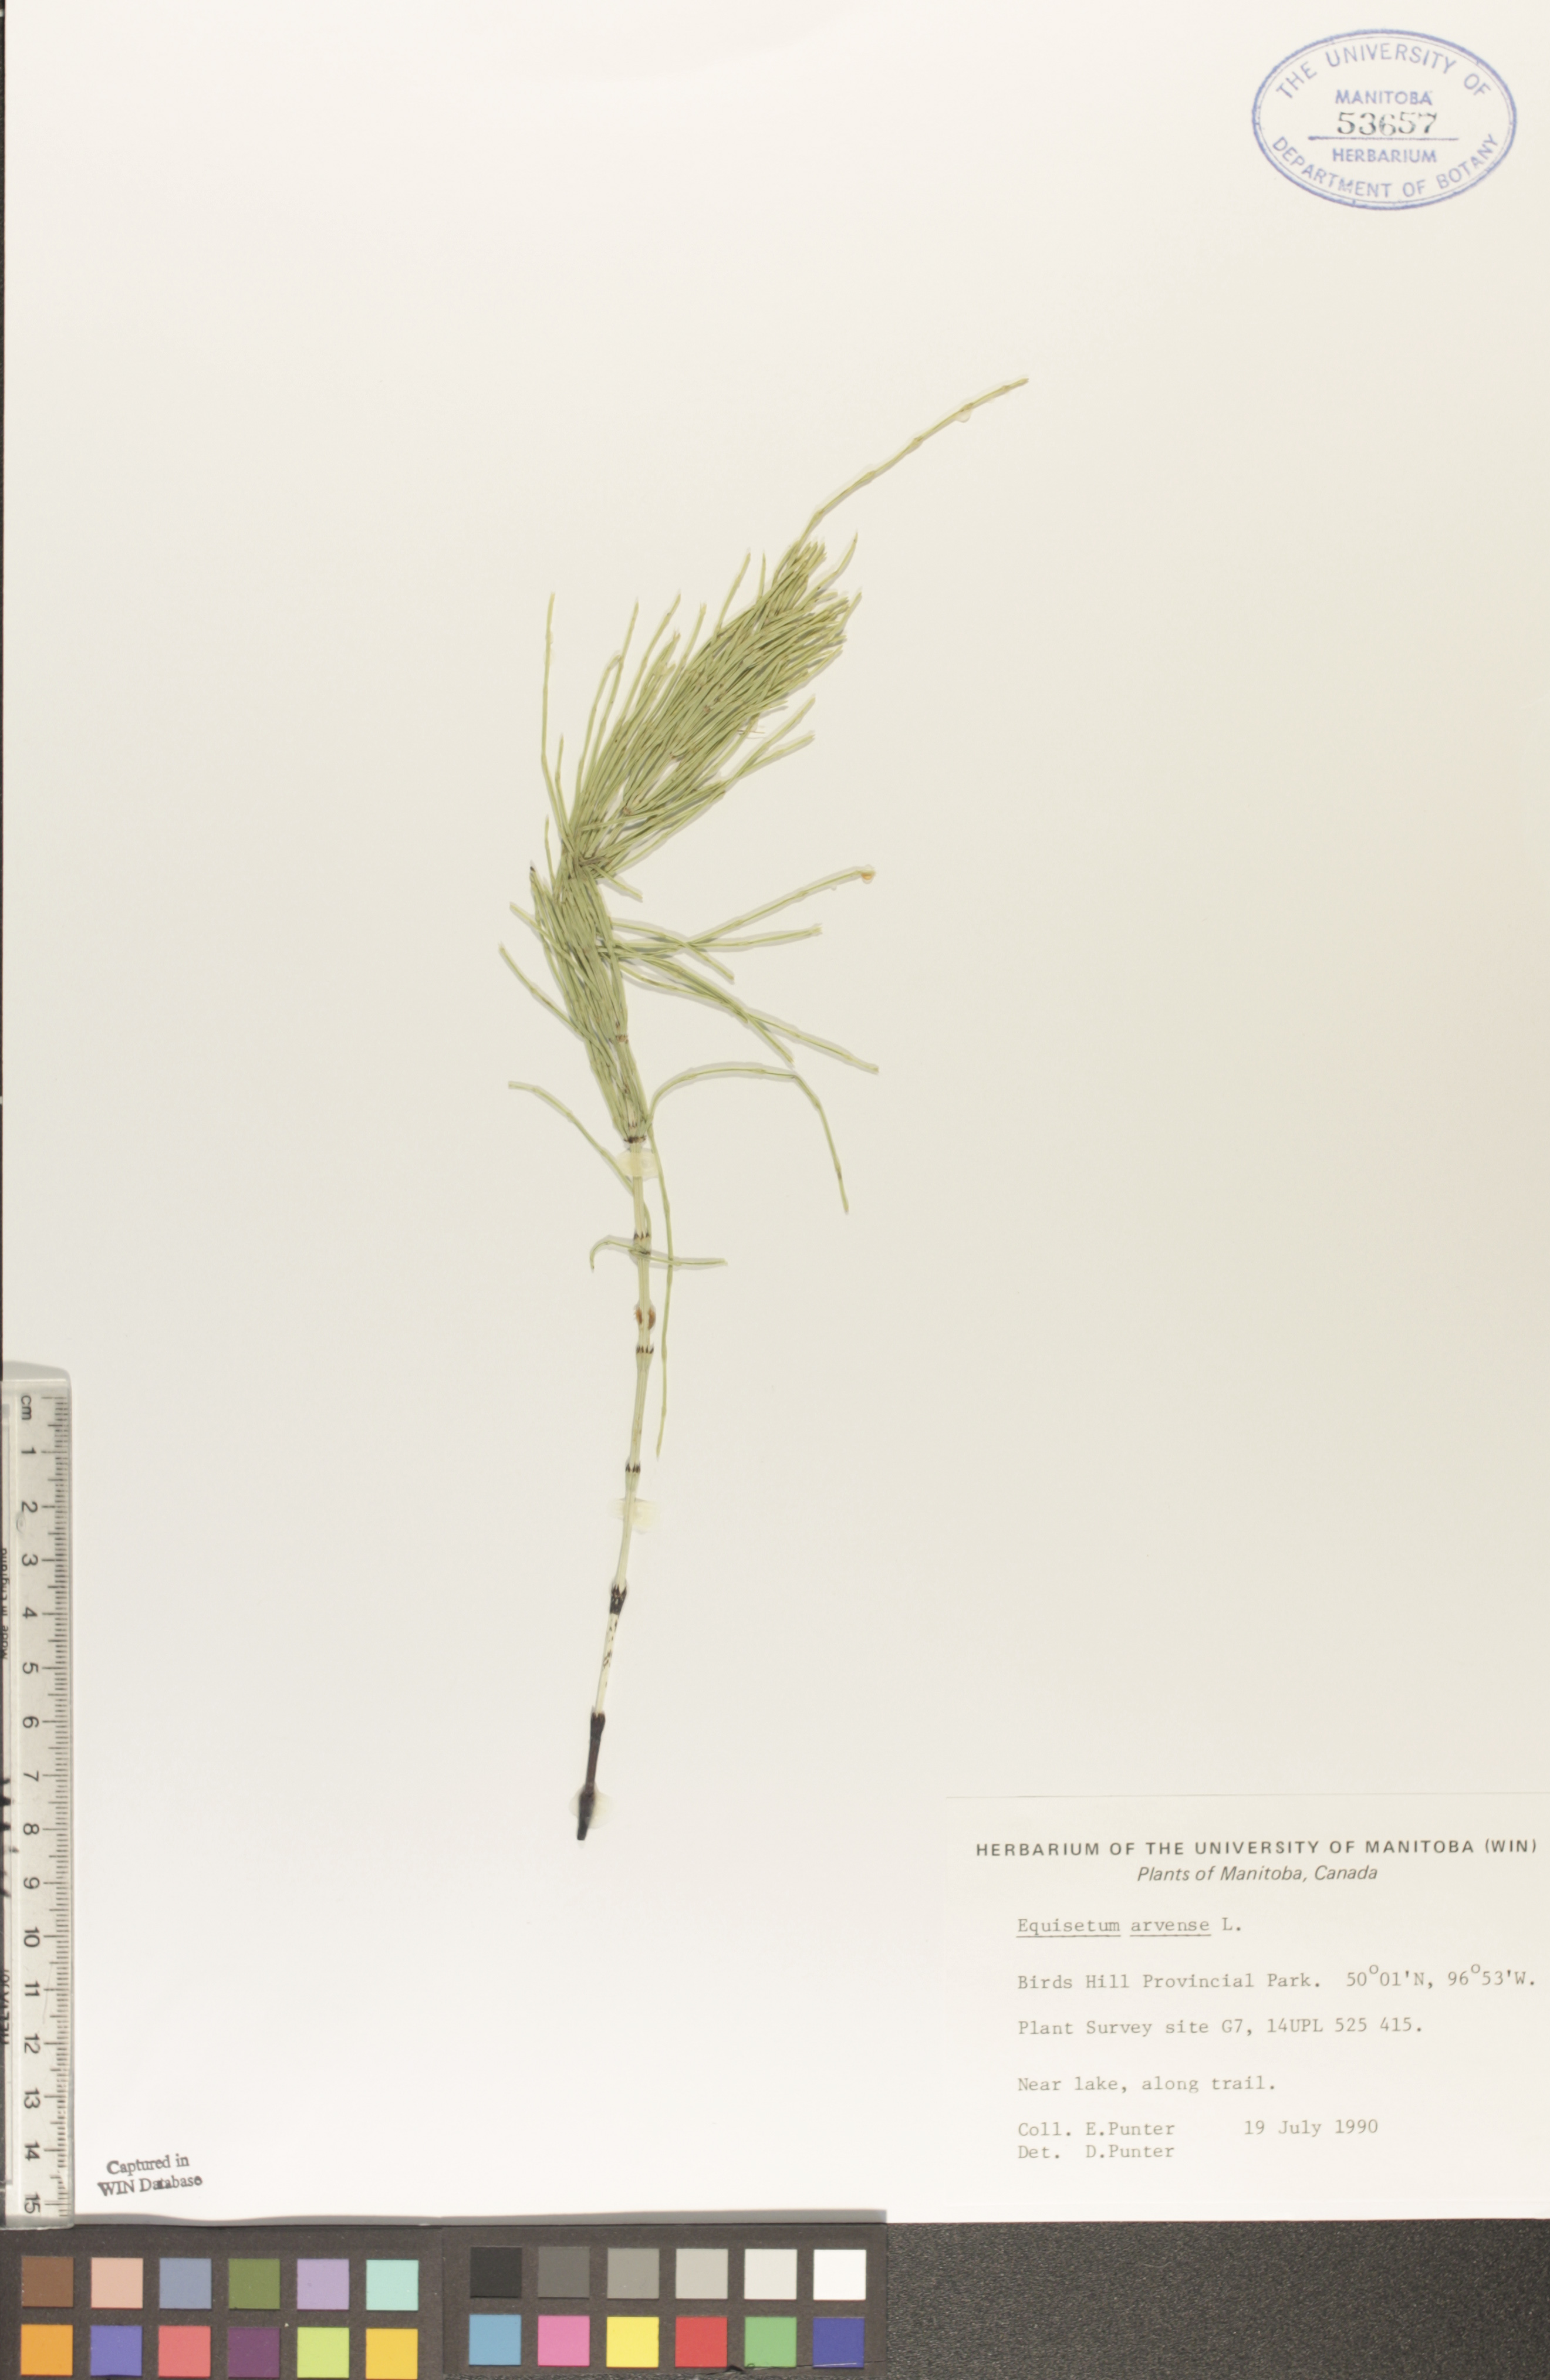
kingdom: Plantae
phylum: Tracheophyta
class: Polypodiopsida
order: Equisetales
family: Equisetaceae
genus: Equisetum
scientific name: Equisetum arvense
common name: Field horsetail
